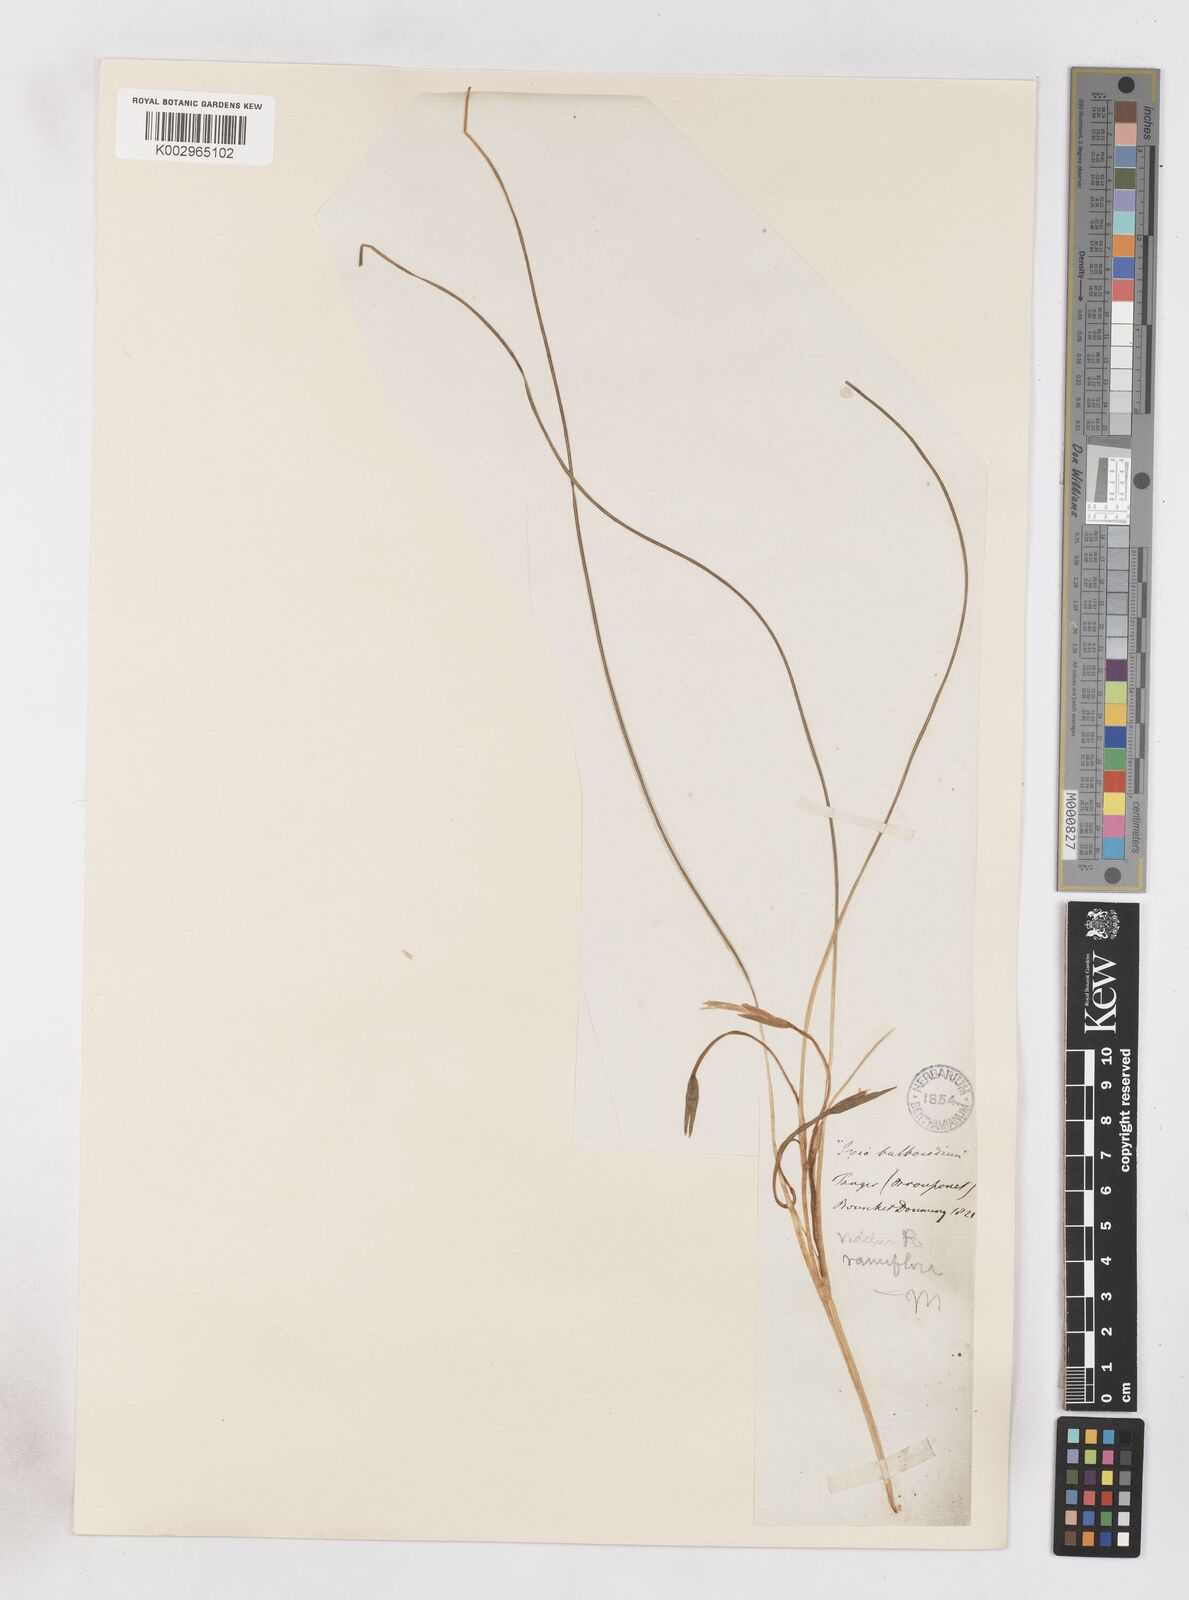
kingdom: Plantae
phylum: Tracheophyta
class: Liliopsida
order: Asparagales
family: Iridaceae
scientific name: Iridaceae
